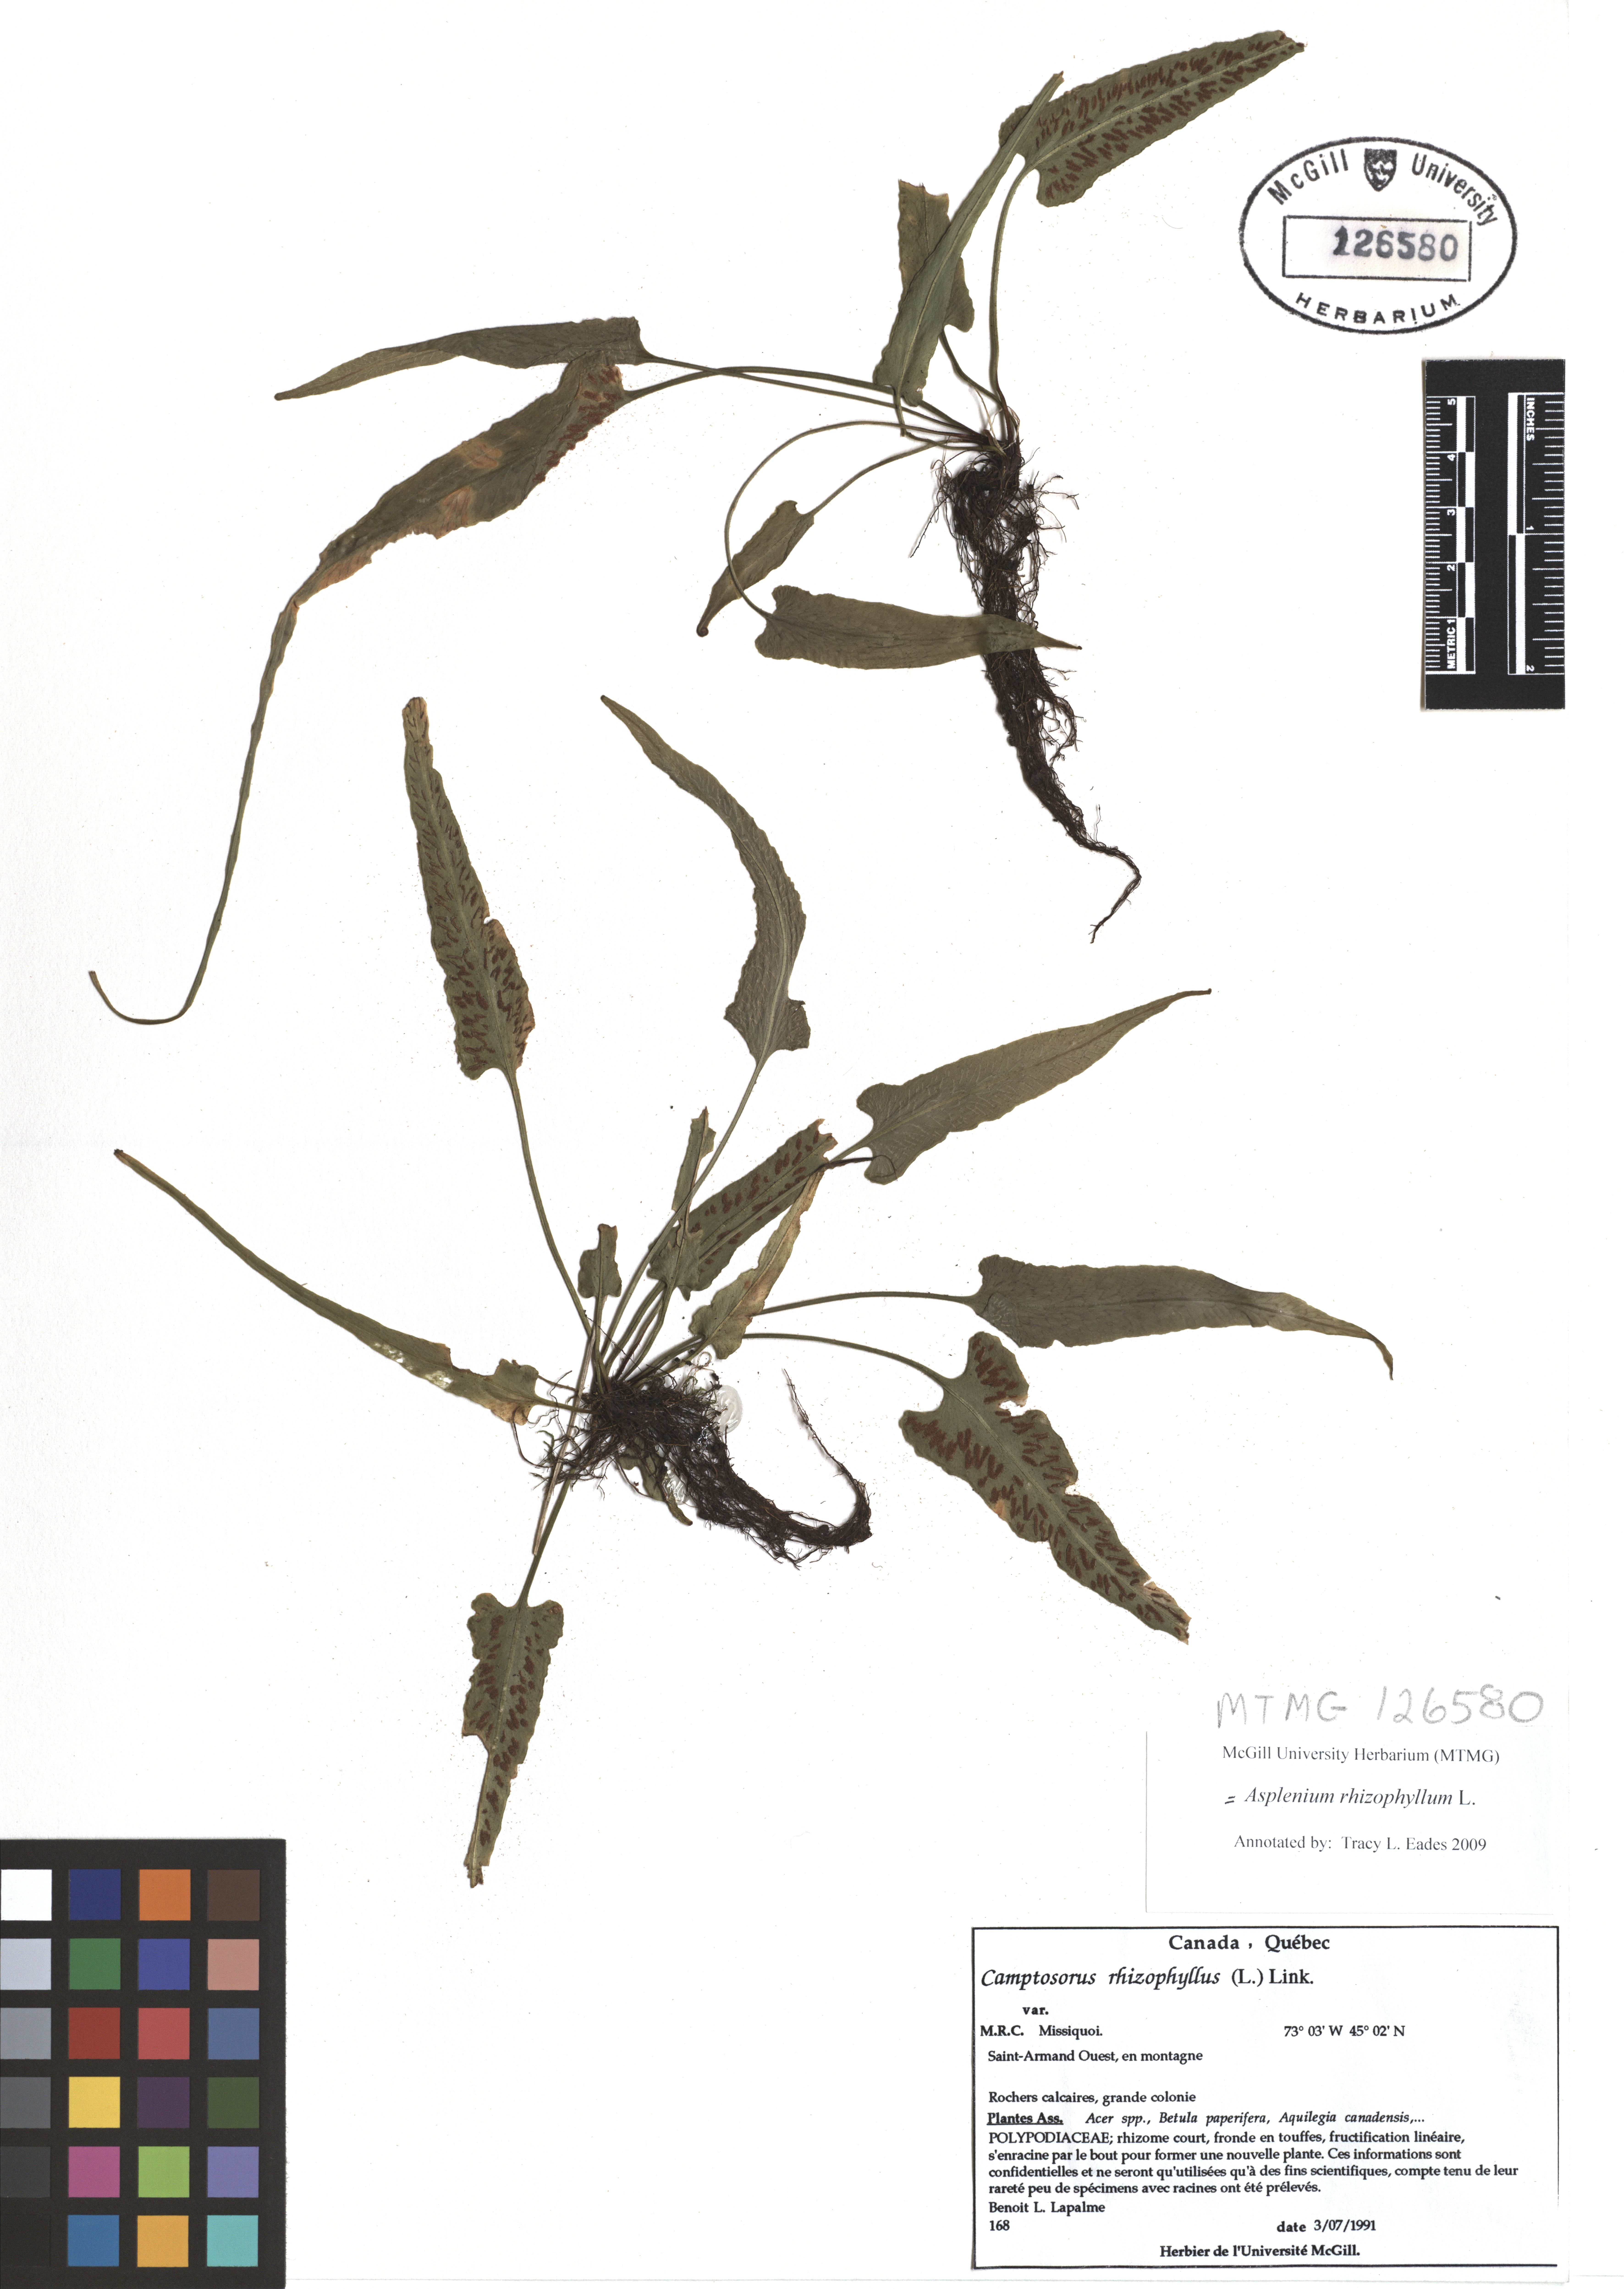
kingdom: Plantae
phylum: Tracheophyta
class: Polypodiopsida
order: Polypodiales
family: Aspleniaceae
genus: Asplenium
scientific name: Asplenium radicans
